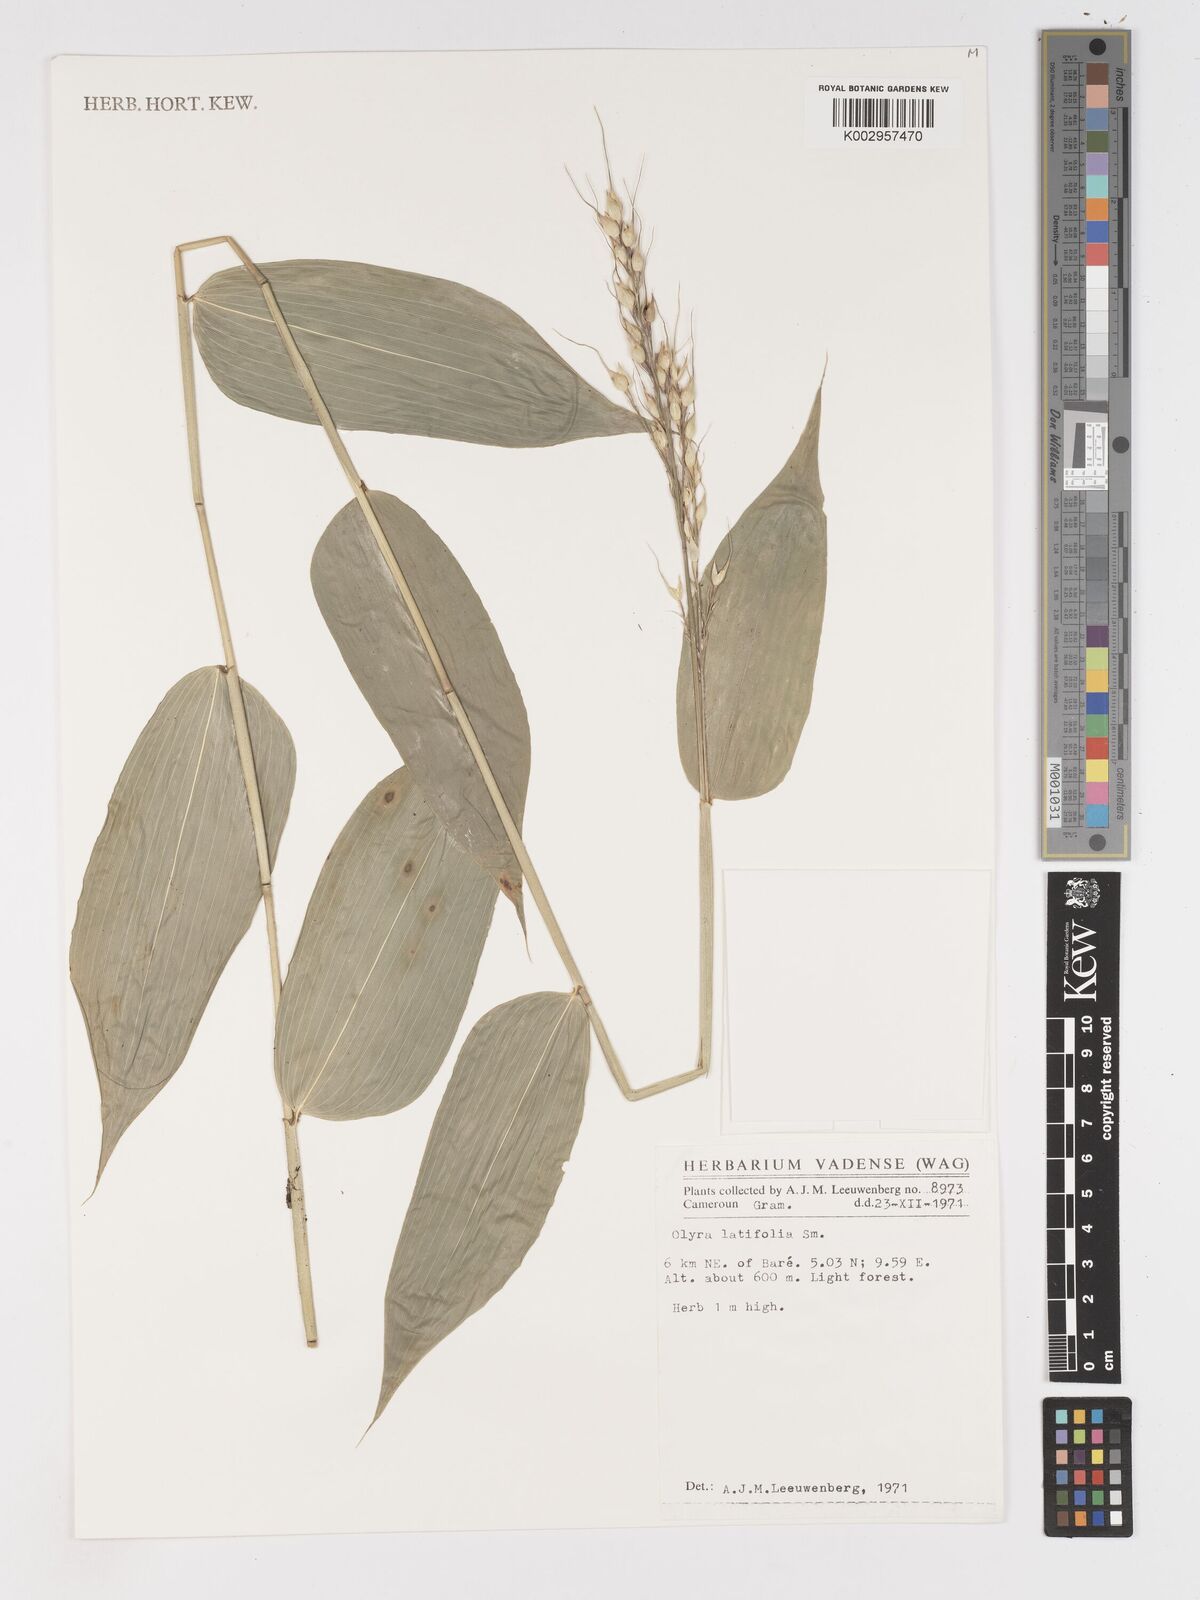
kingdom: Plantae
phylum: Tracheophyta
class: Liliopsida
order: Poales
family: Poaceae
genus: Olyra
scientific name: Olyra latifolia
